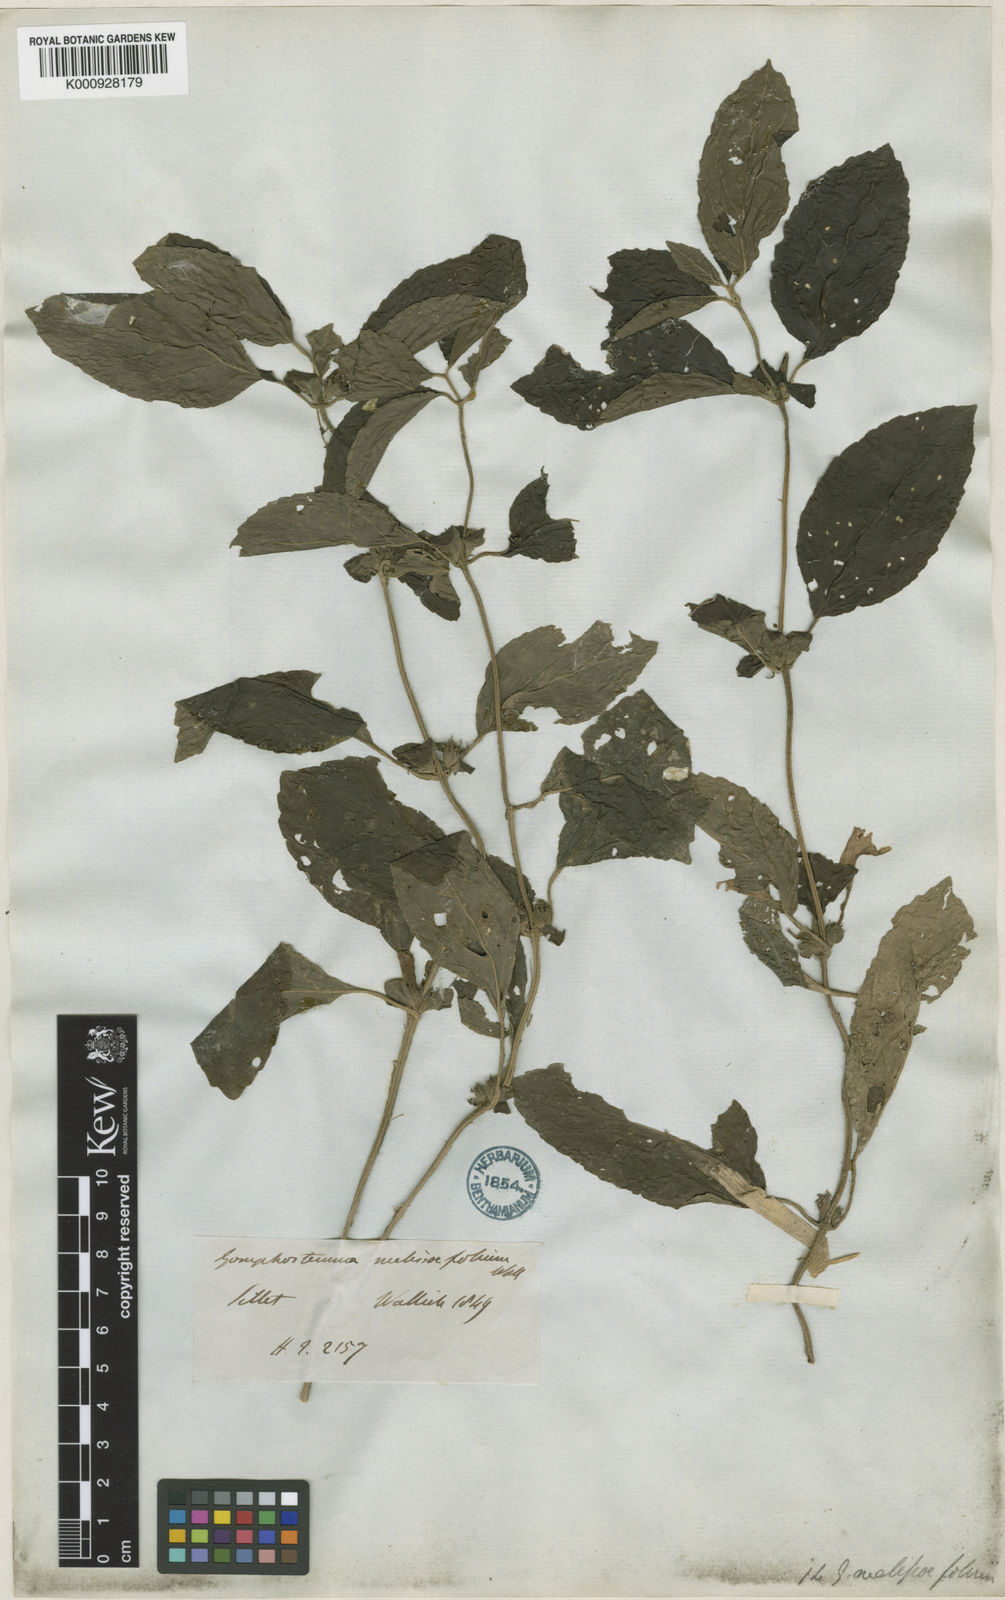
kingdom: Plantae
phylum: Tracheophyta
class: Magnoliopsida
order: Lamiales
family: Lamiaceae
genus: Gomphostemma
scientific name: Gomphostemma melissifolium
